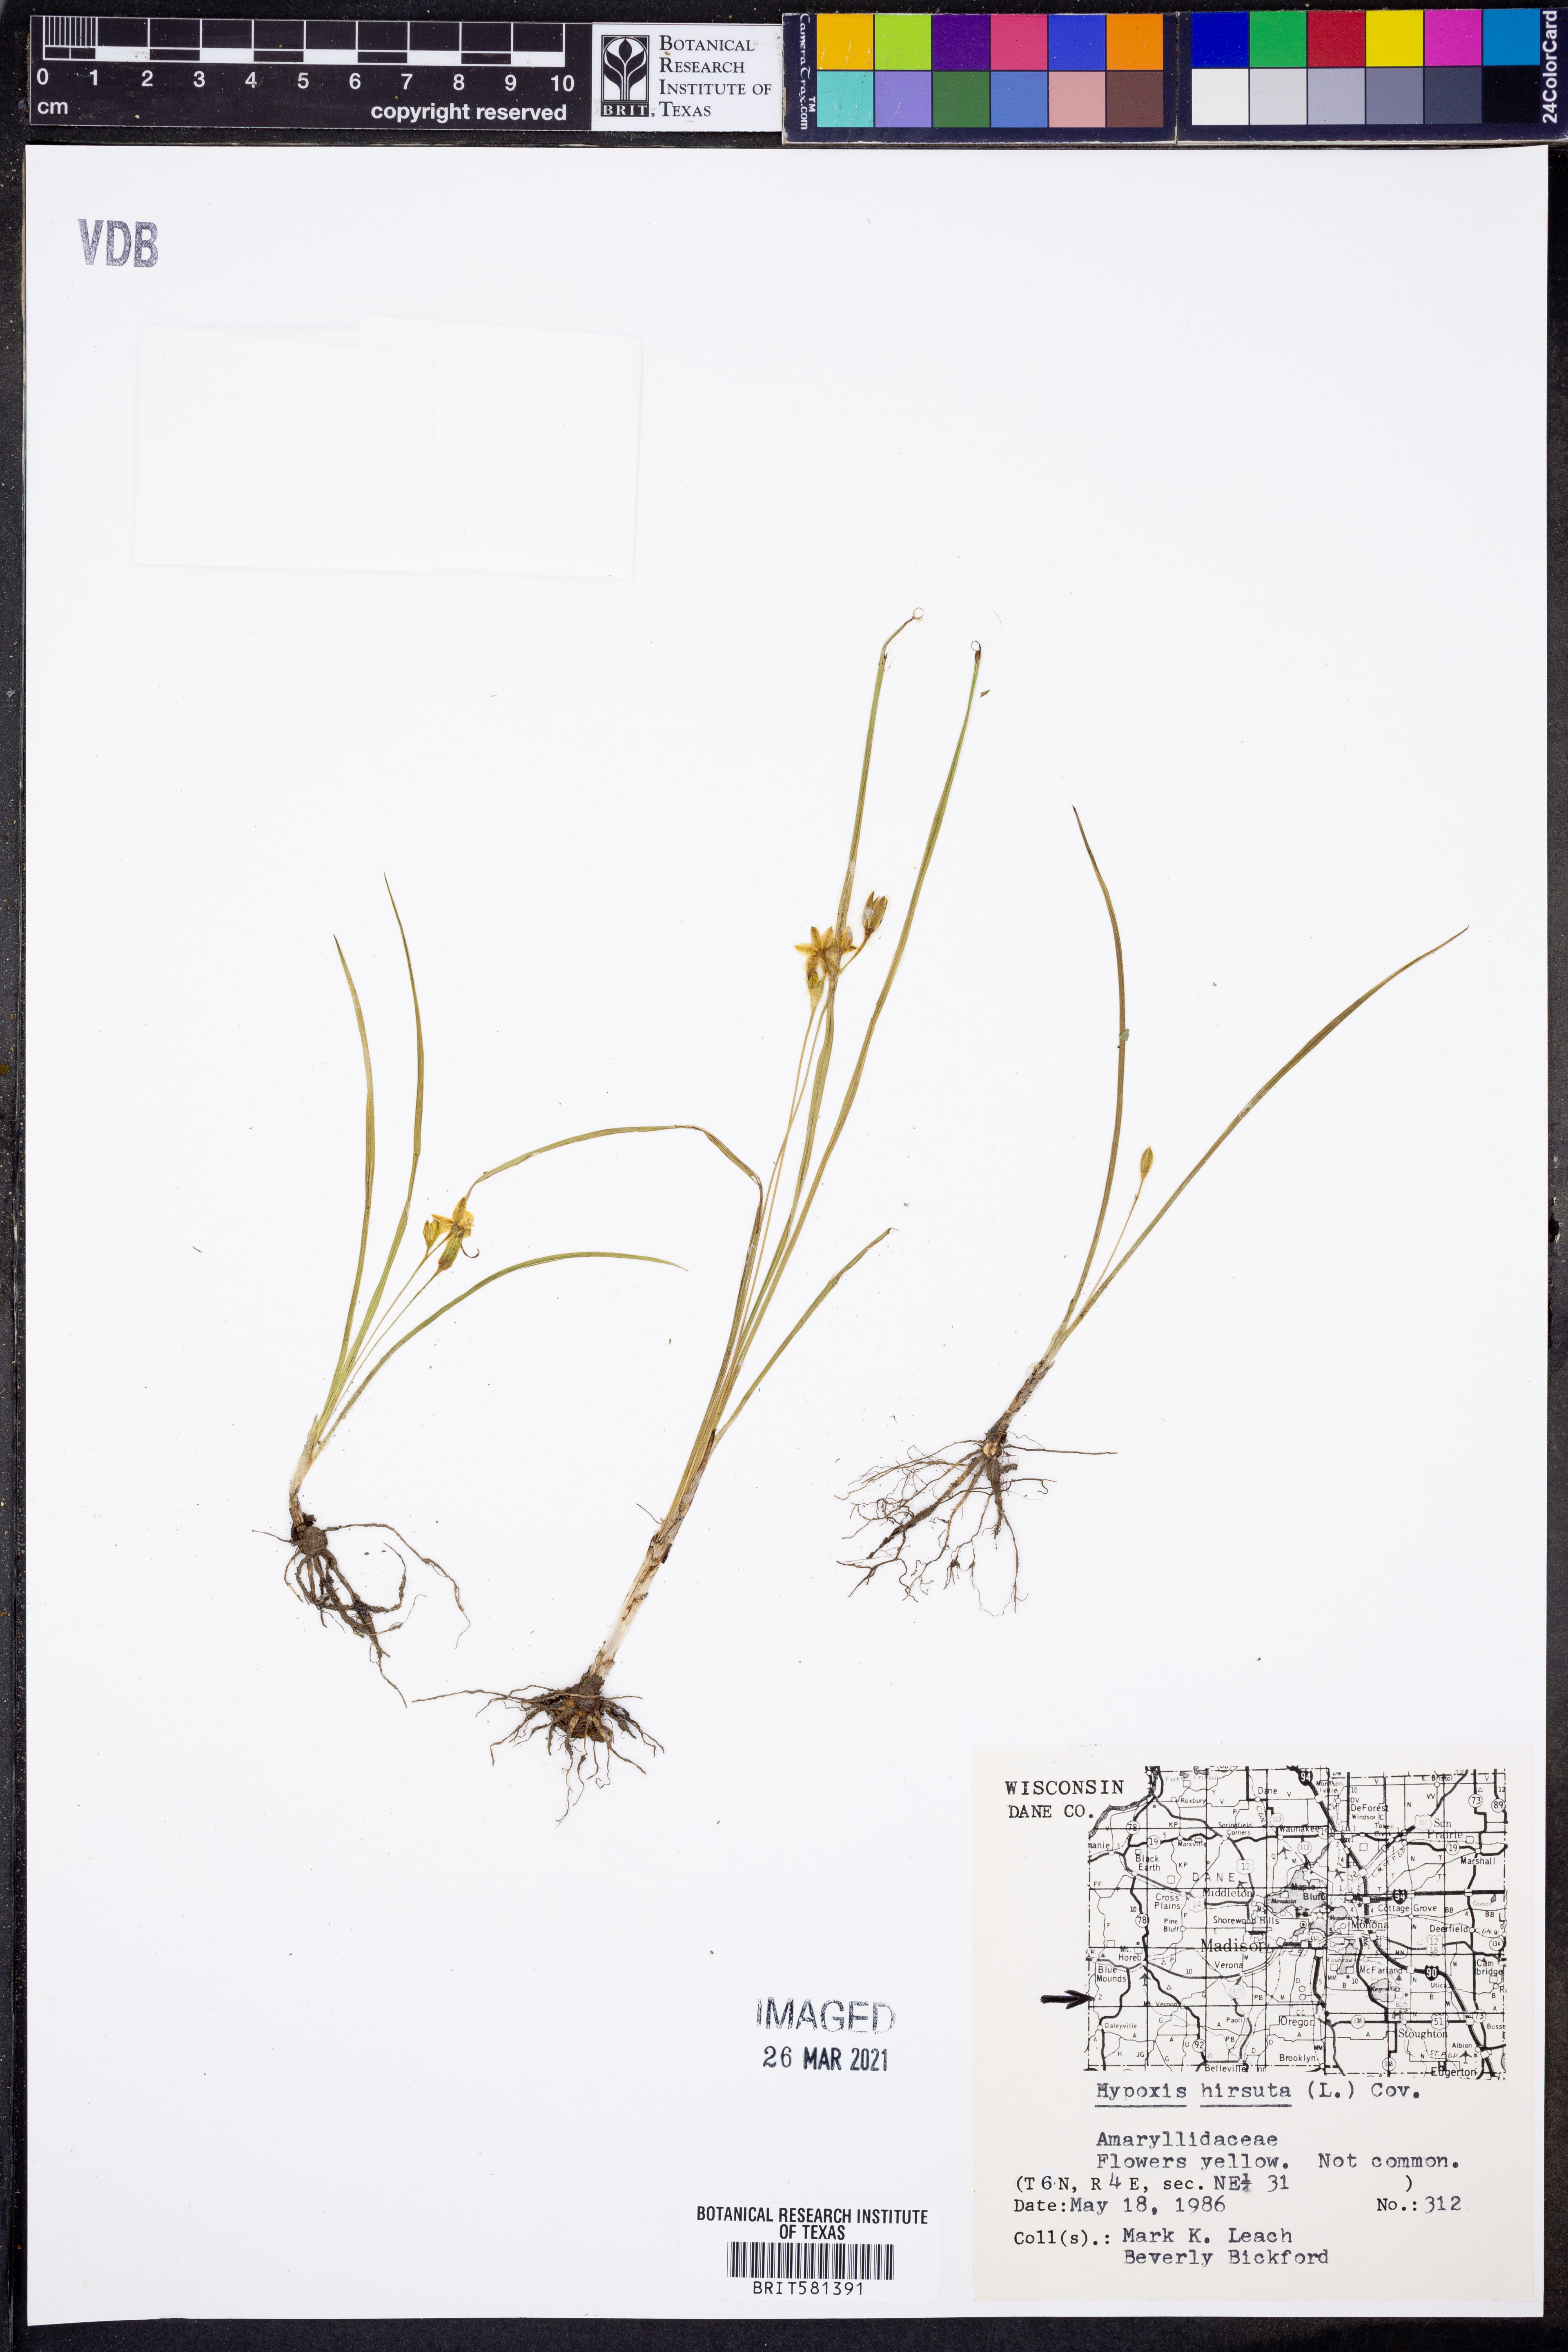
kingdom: Plantae
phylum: Tracheophyta
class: Liliopsida
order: Asparagales
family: Hypoxidaceae
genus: Hypoxis
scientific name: Hypoxis hirsuta
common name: Common goldstar
